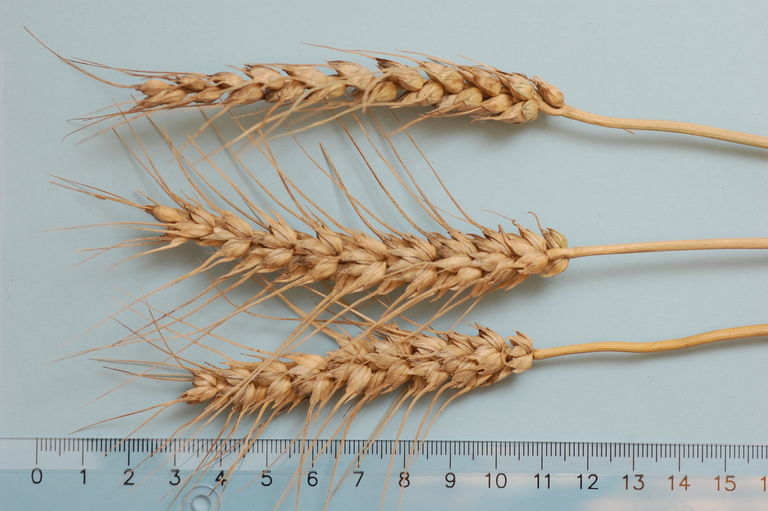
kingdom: Plantae
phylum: Tracheophyta
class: Liliopsida
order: Poales
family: Poaceae
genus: Triticum
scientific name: Triticum aestivum
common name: Common wheat
